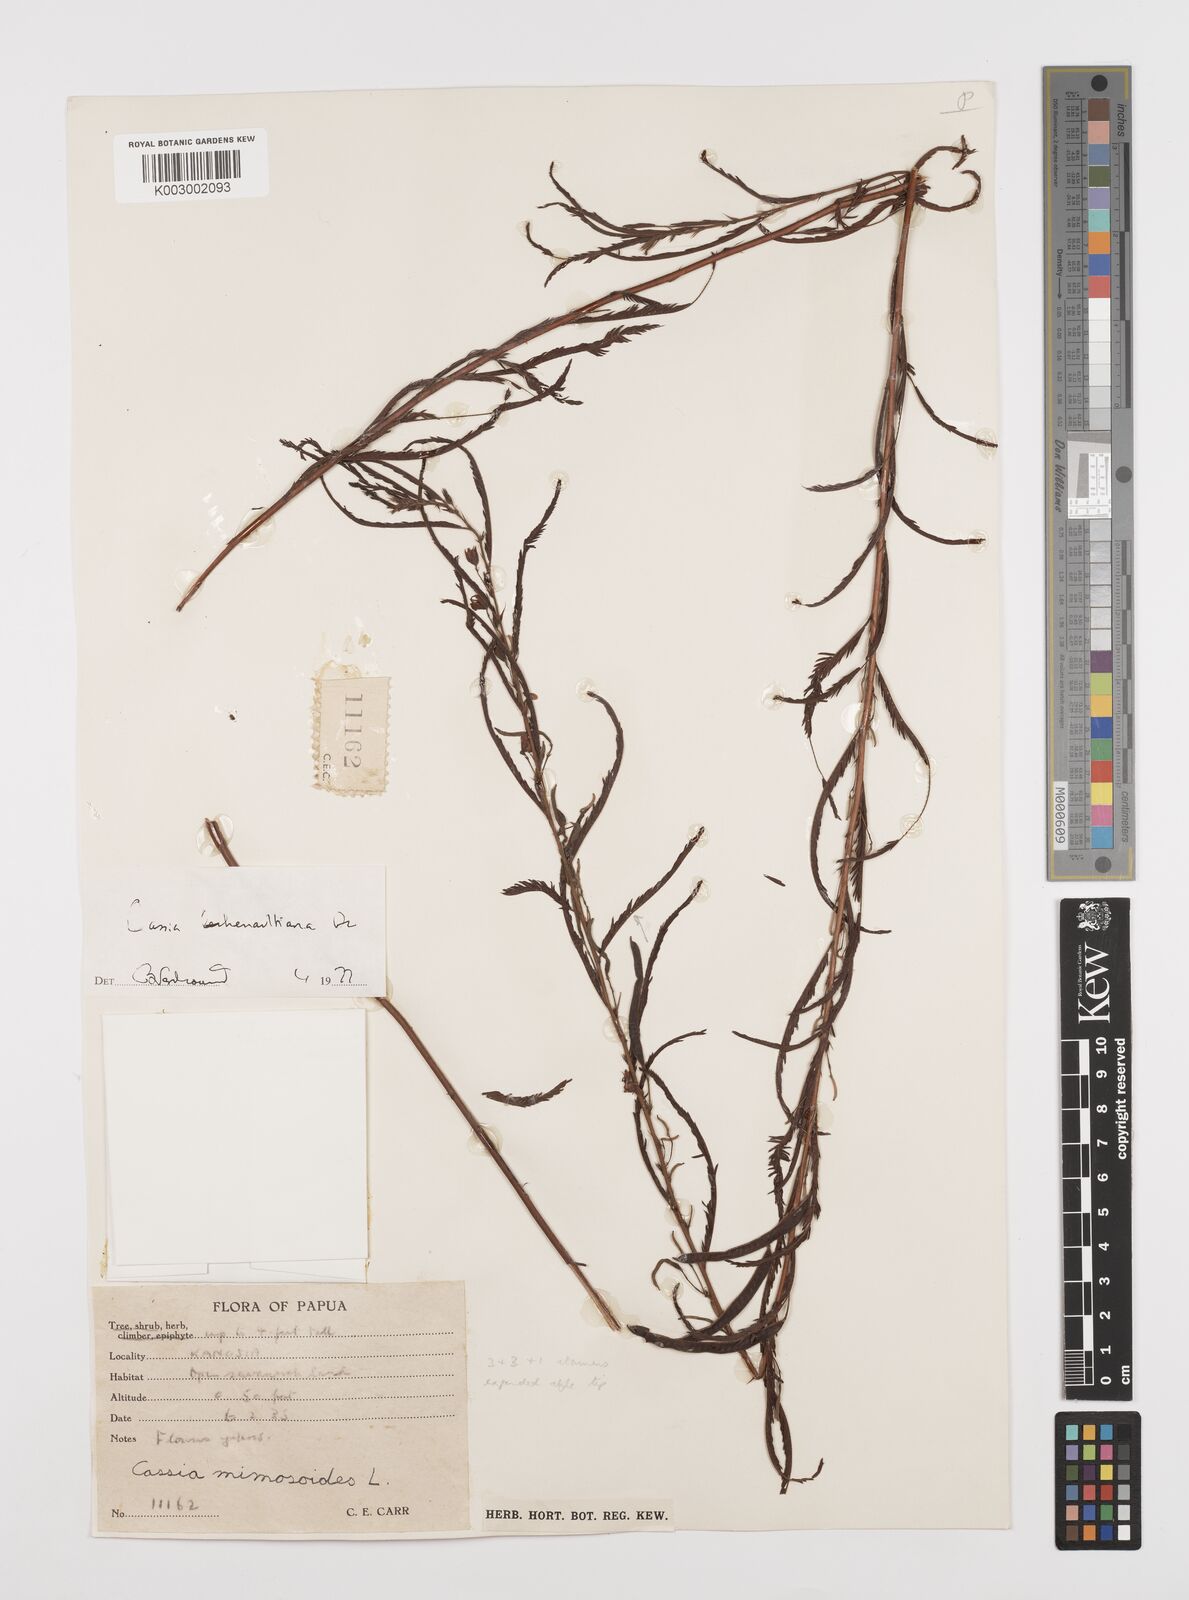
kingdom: Plantae
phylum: Tracheophyta
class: Magnoliopsida
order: Fabales
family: Fabaceae
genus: Chamaecrista
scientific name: Chamaecrista mimosoides
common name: Fish-bone cassia
